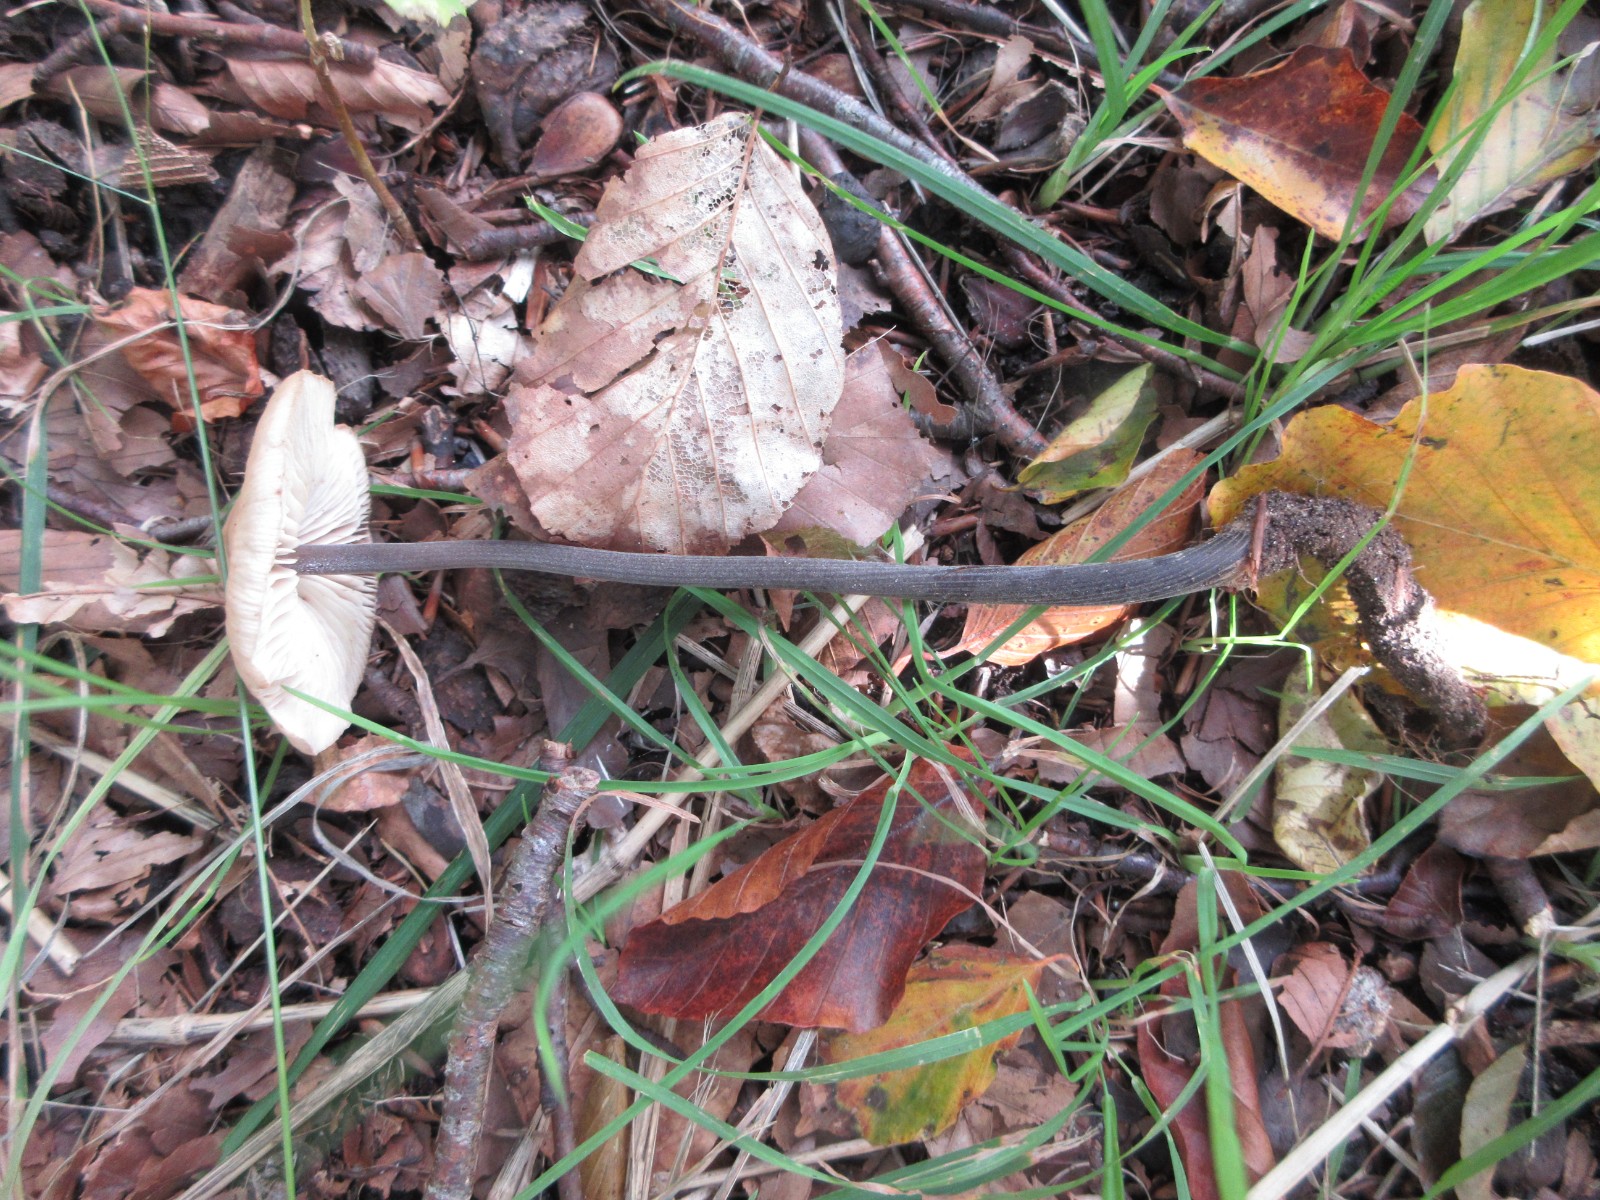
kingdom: Fungi
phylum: Basidiomycota
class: Agaricomycetes
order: Agaricales
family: Physalacriaceae
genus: Hymenopellis
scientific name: Hymenopellis radicata
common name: almindelig pælerodshat
